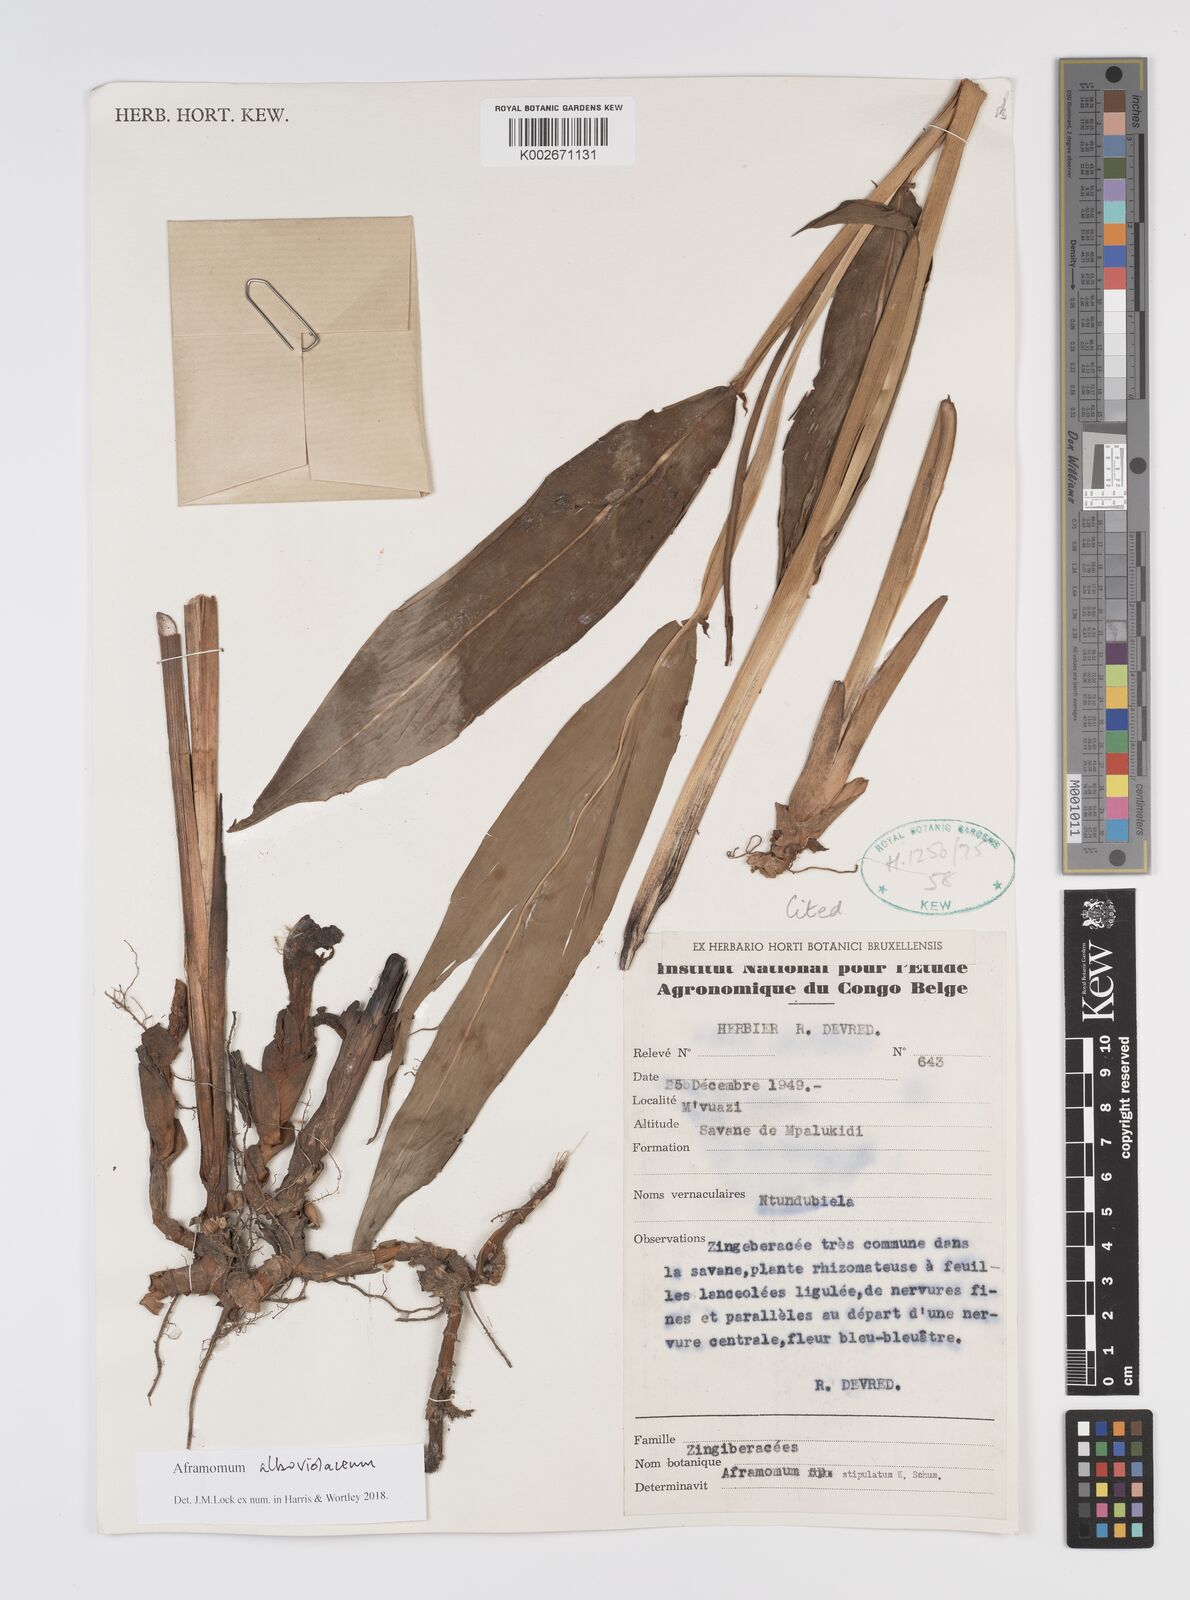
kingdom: Plantae
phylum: Tracheophyta
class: Liliopsida
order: Zingiberales
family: Zingiberaceae
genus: Aframomum
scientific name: Aframomum alboviolaceum
